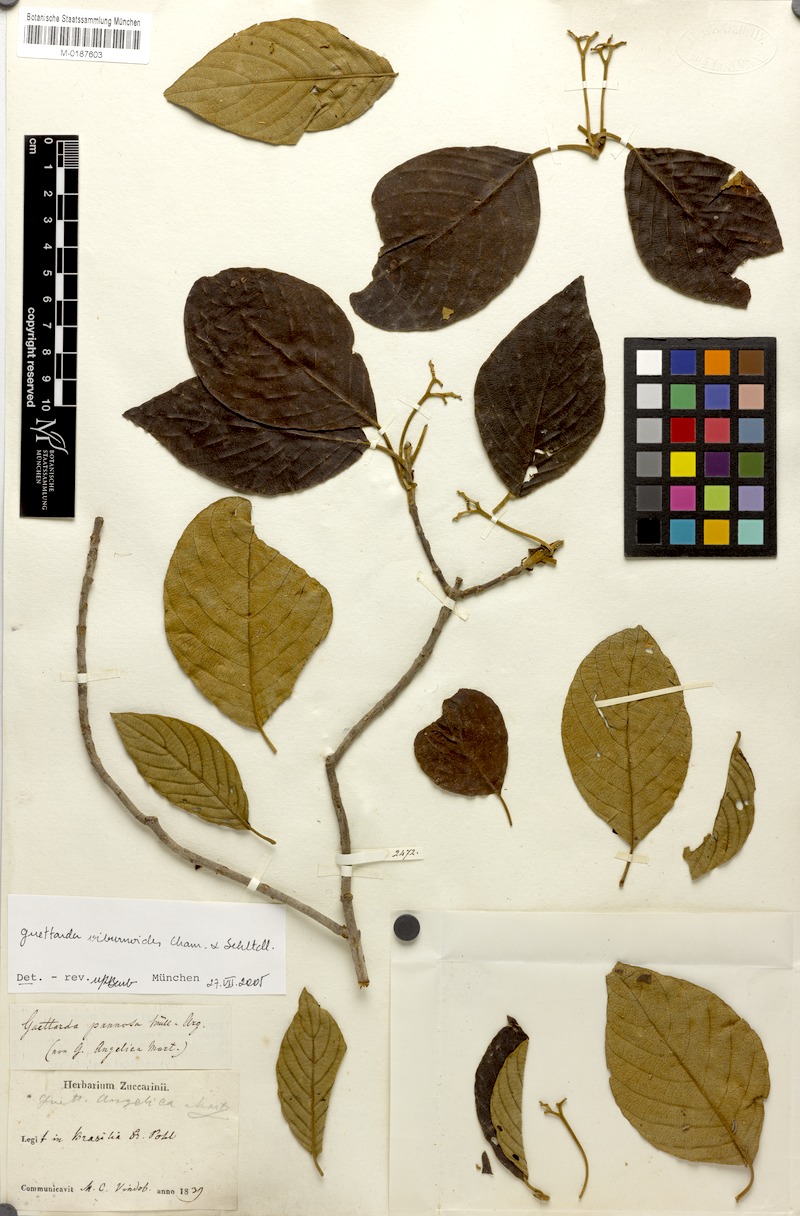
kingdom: Plantae
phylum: Tracheophyta
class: Magnoliopsida
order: Gentianales
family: Rubiaceae
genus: Guettarda
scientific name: Guettarda viburnoides
